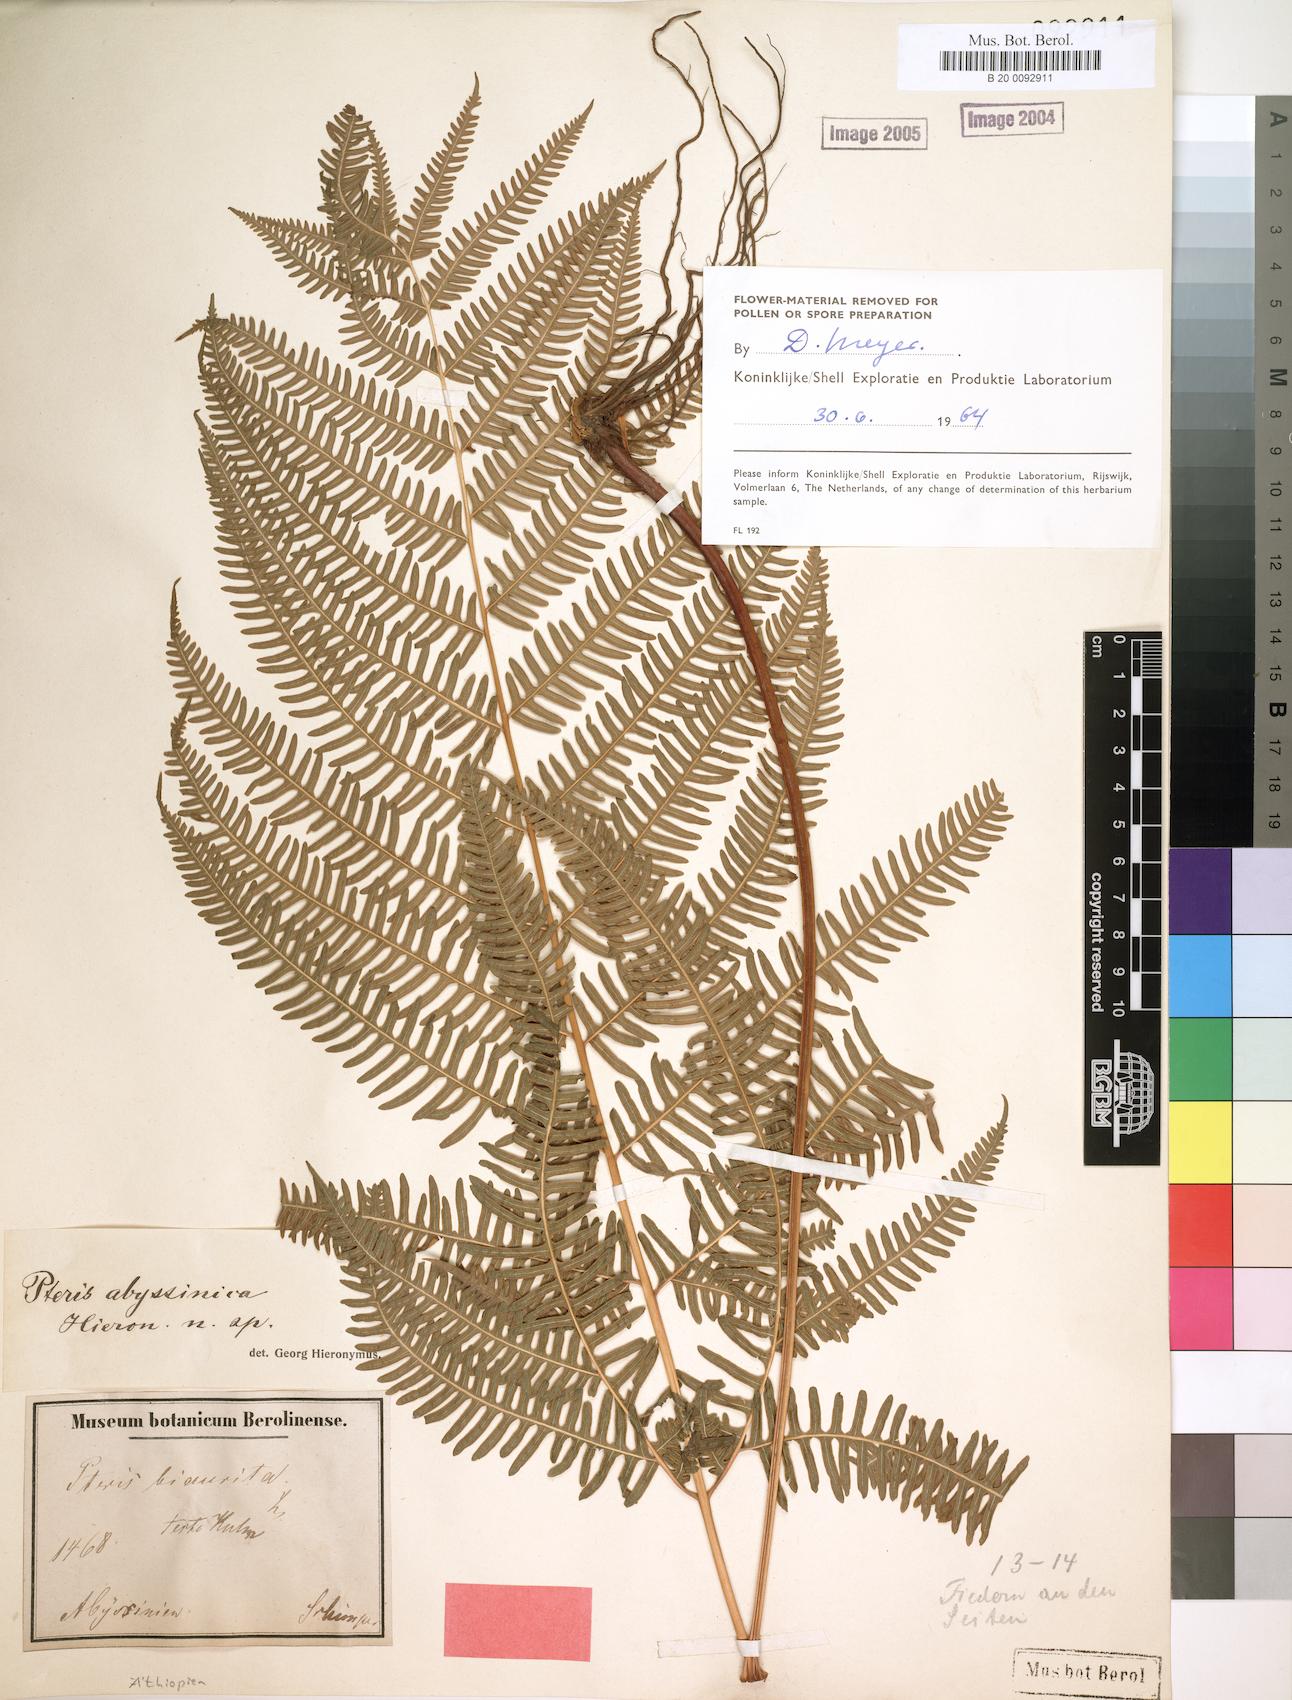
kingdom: Plantae
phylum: Tracheophyta
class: Polypodiopsida
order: Polypodiales
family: Pteridaceae
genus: Pteris
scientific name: Pteris catoptera
